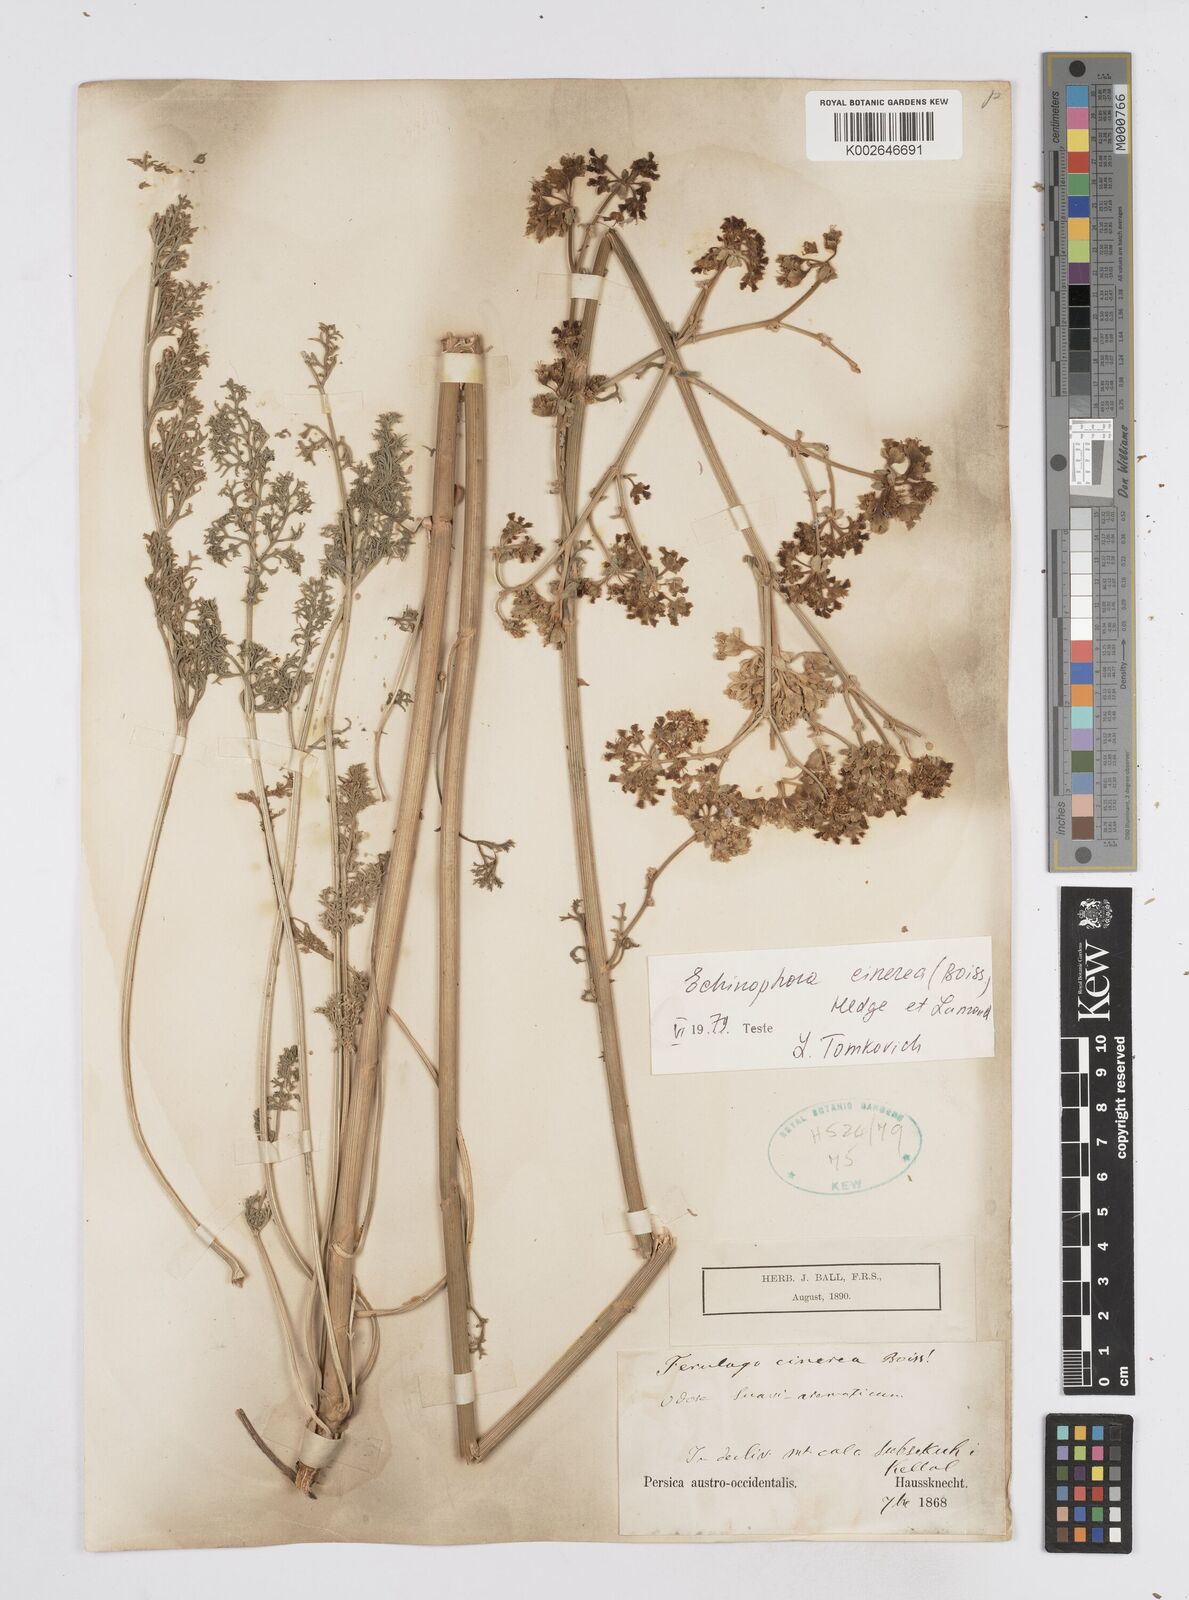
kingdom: Plantae
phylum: Tracheophyta
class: Magnoliopsida
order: Apiales
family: Apiaceae
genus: Echinophora
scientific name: Echinophora cinerea
